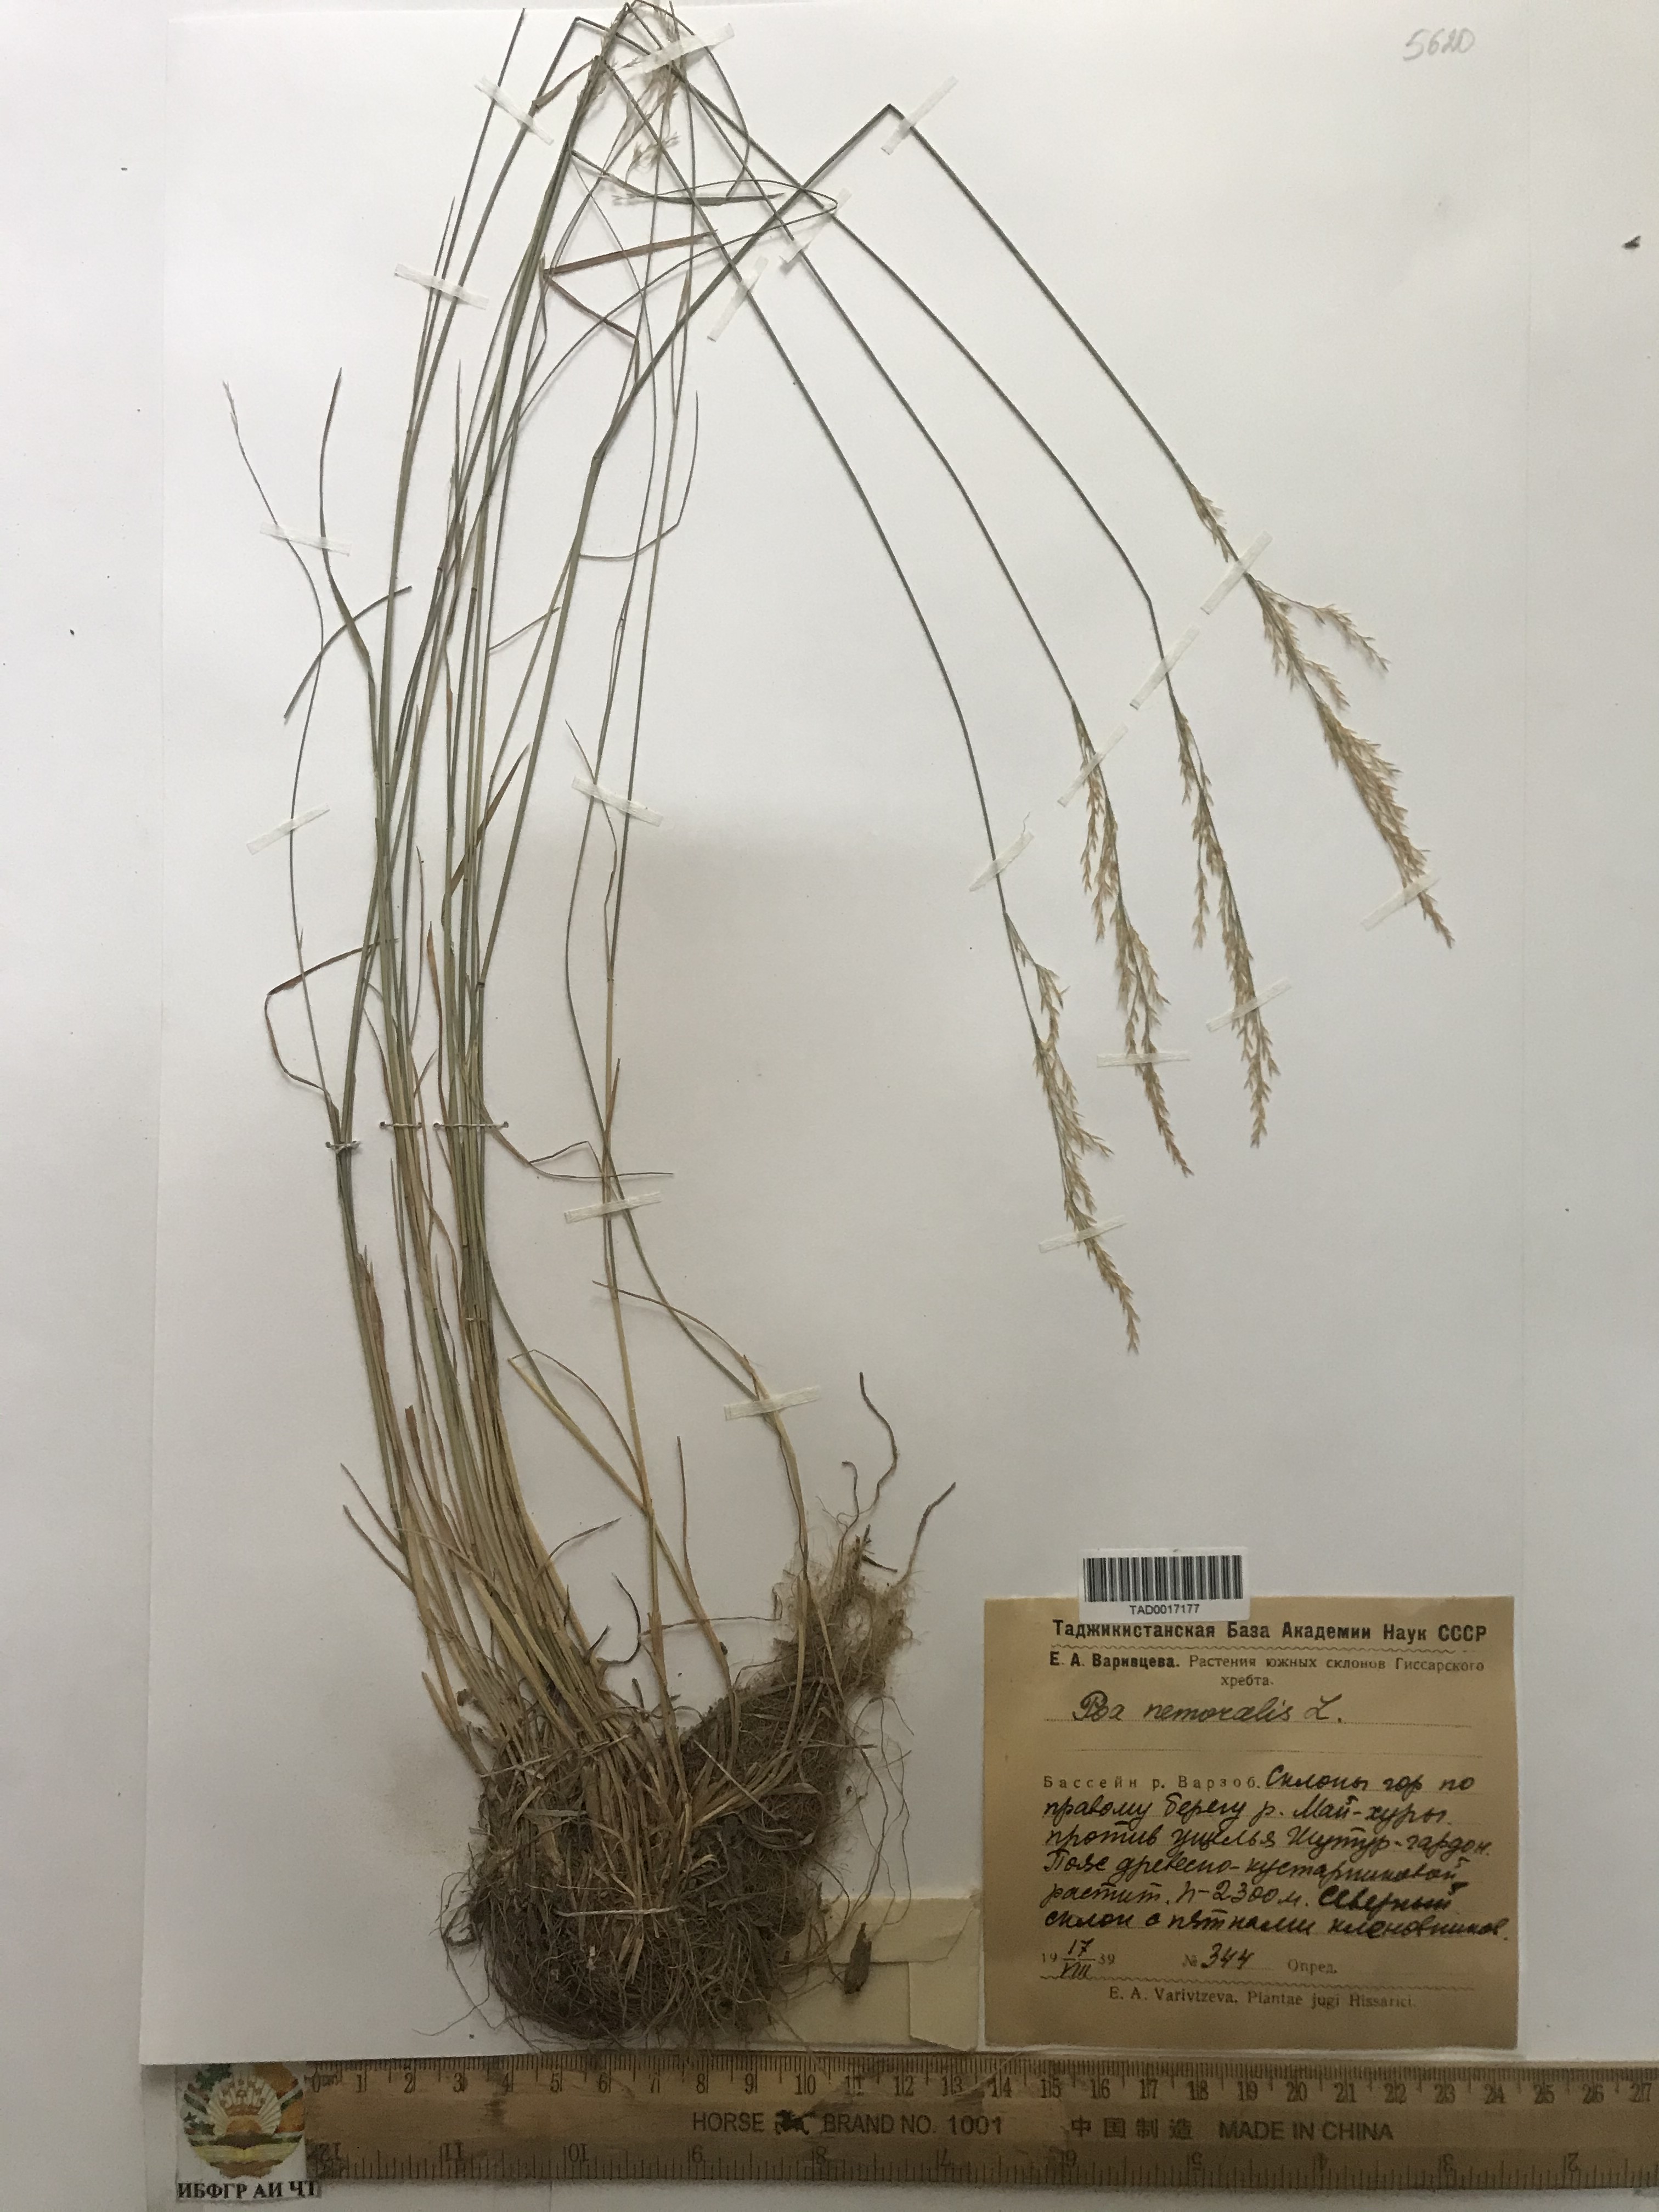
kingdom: Plantae
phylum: Tracheophyta
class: Liliopsida
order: Poales
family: Poaceae
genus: Poa
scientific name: Poa nemoralis
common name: Wood bluegrass
